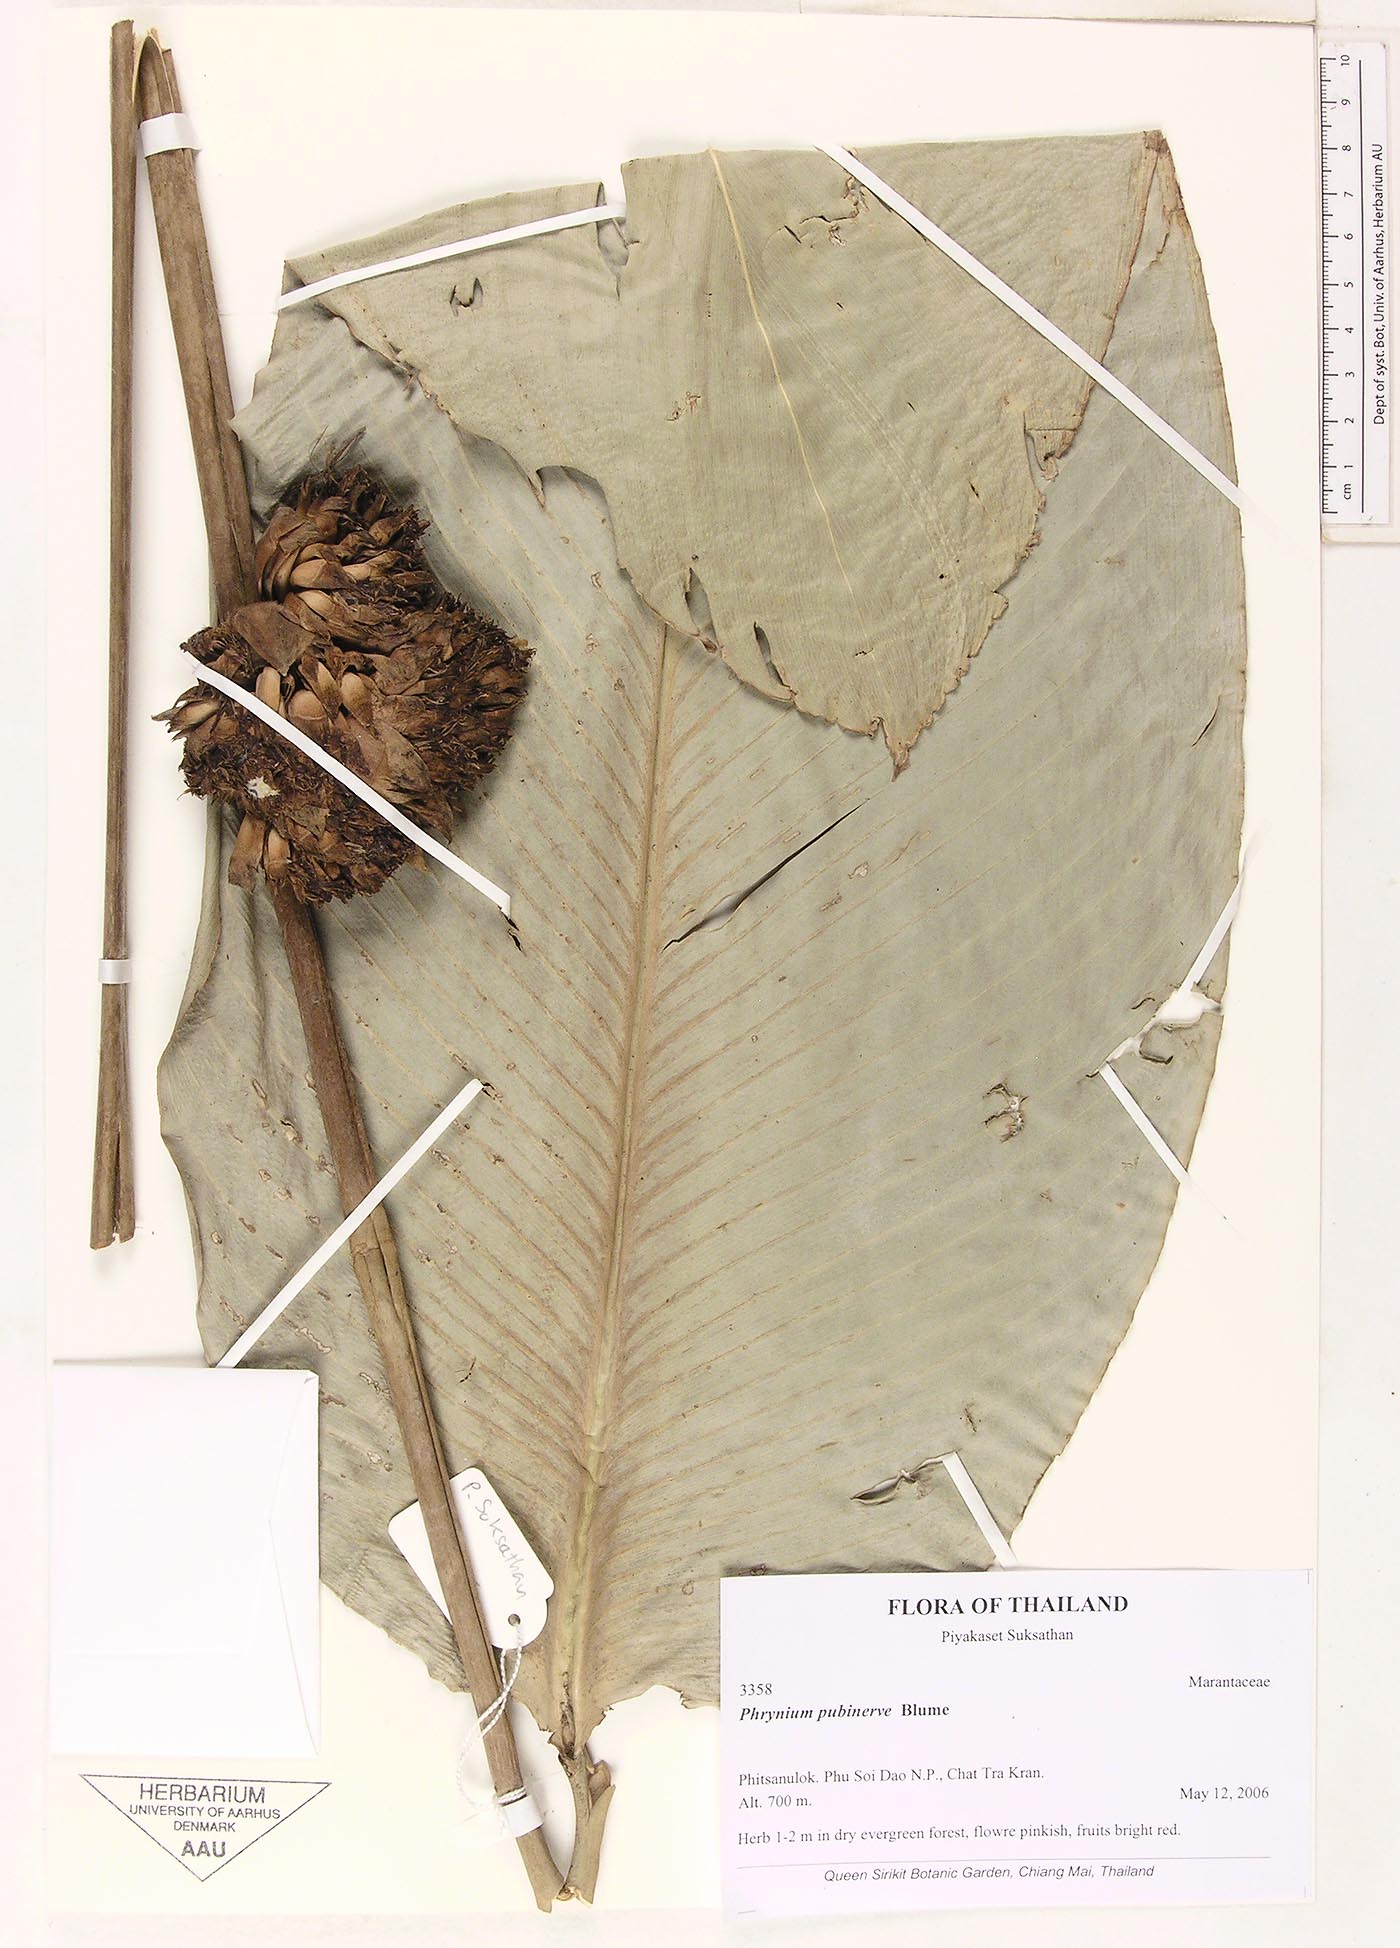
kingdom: Plantae
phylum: Tracheophyta
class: Liliopsida
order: Zingiberales
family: Marantaceae
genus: Phrynium
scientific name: Phrynium pubinerve
